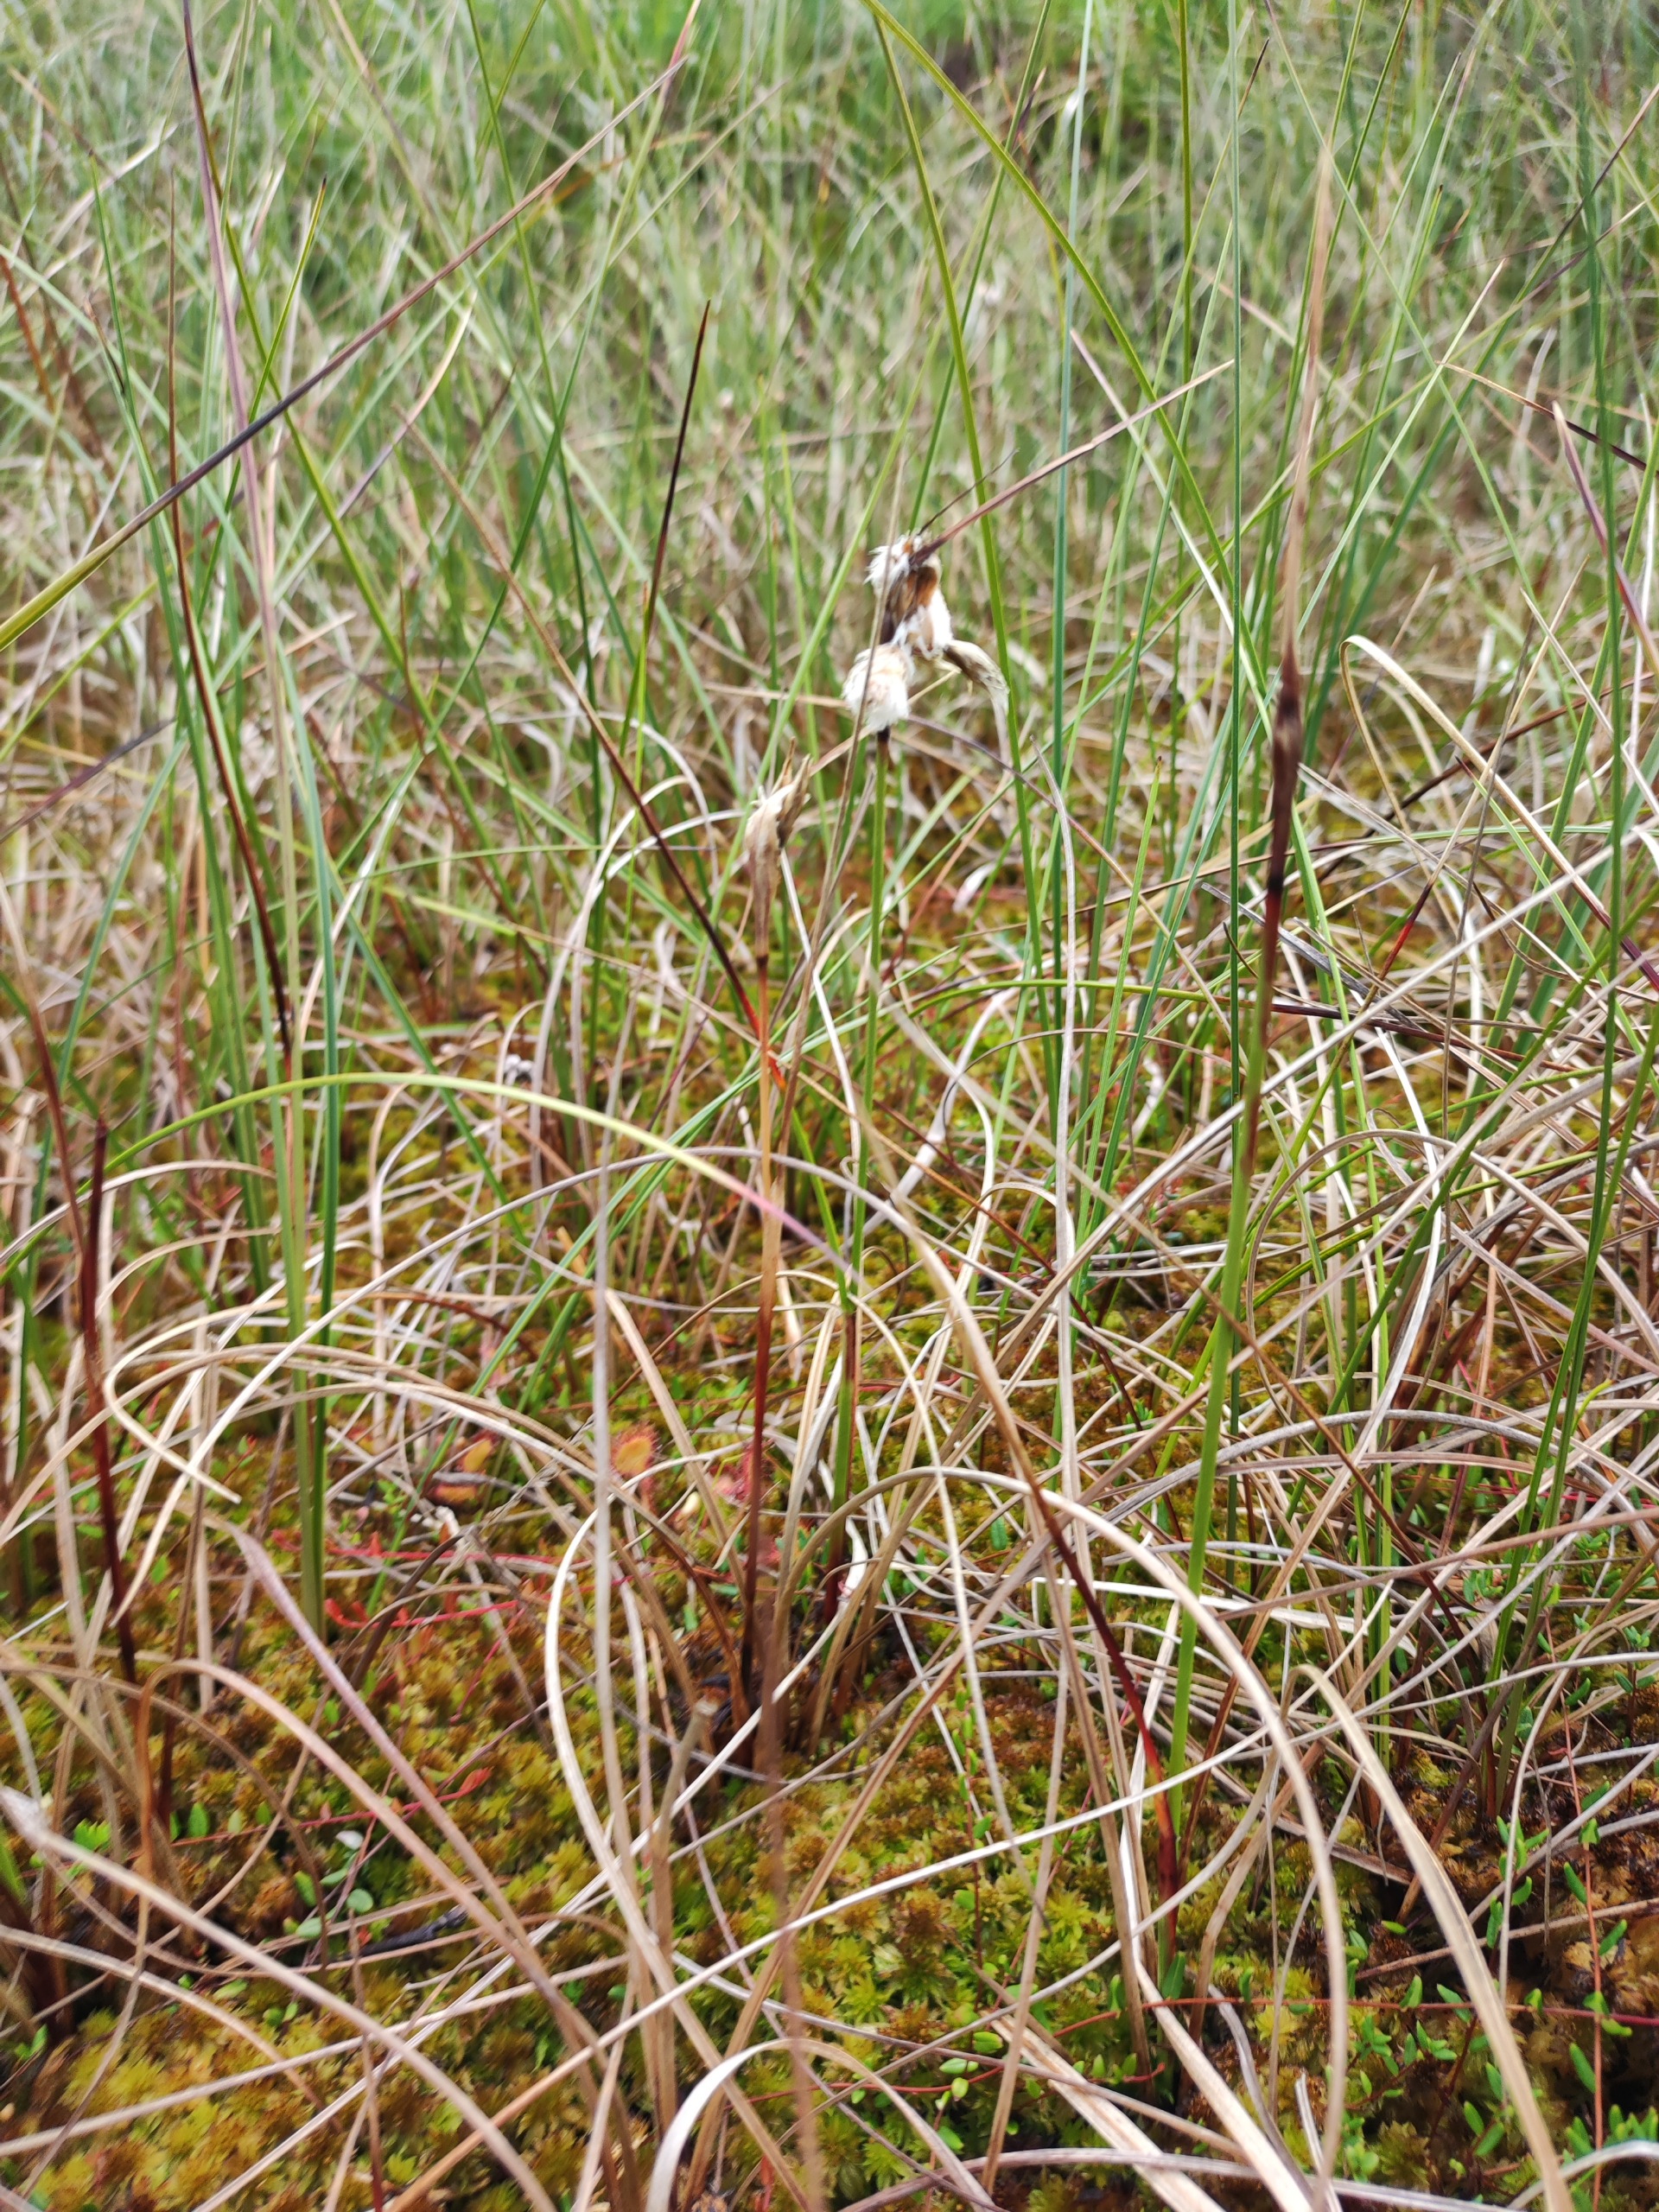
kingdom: Plantae
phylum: Tracheophyta
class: Liliopsida
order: Poales
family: Cyperaceae
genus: Eriophorum
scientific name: Eriophorum angustifolium
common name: Smalbladet kæruld
